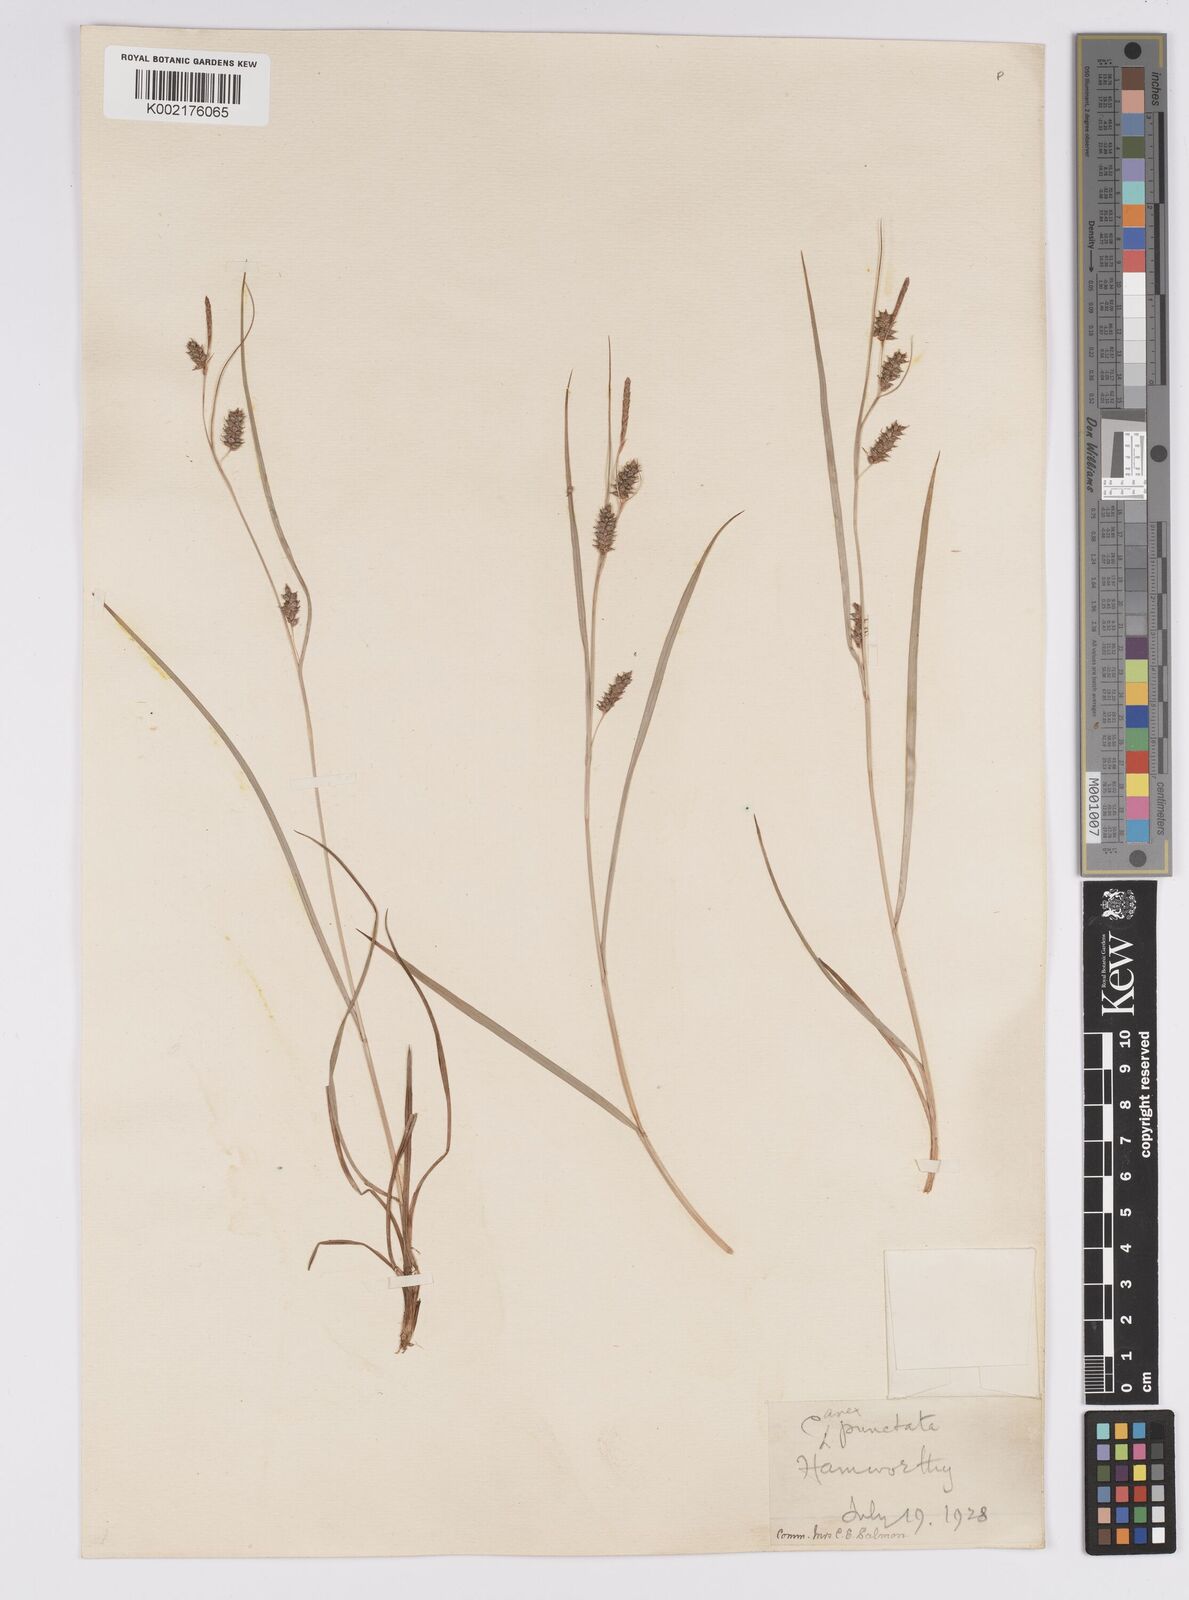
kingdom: Plantae
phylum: Tracheophyta
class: Liliopsida
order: Poales
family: Cyperaceae
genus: Carex
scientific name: Carex punctata
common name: Dotted sedge
